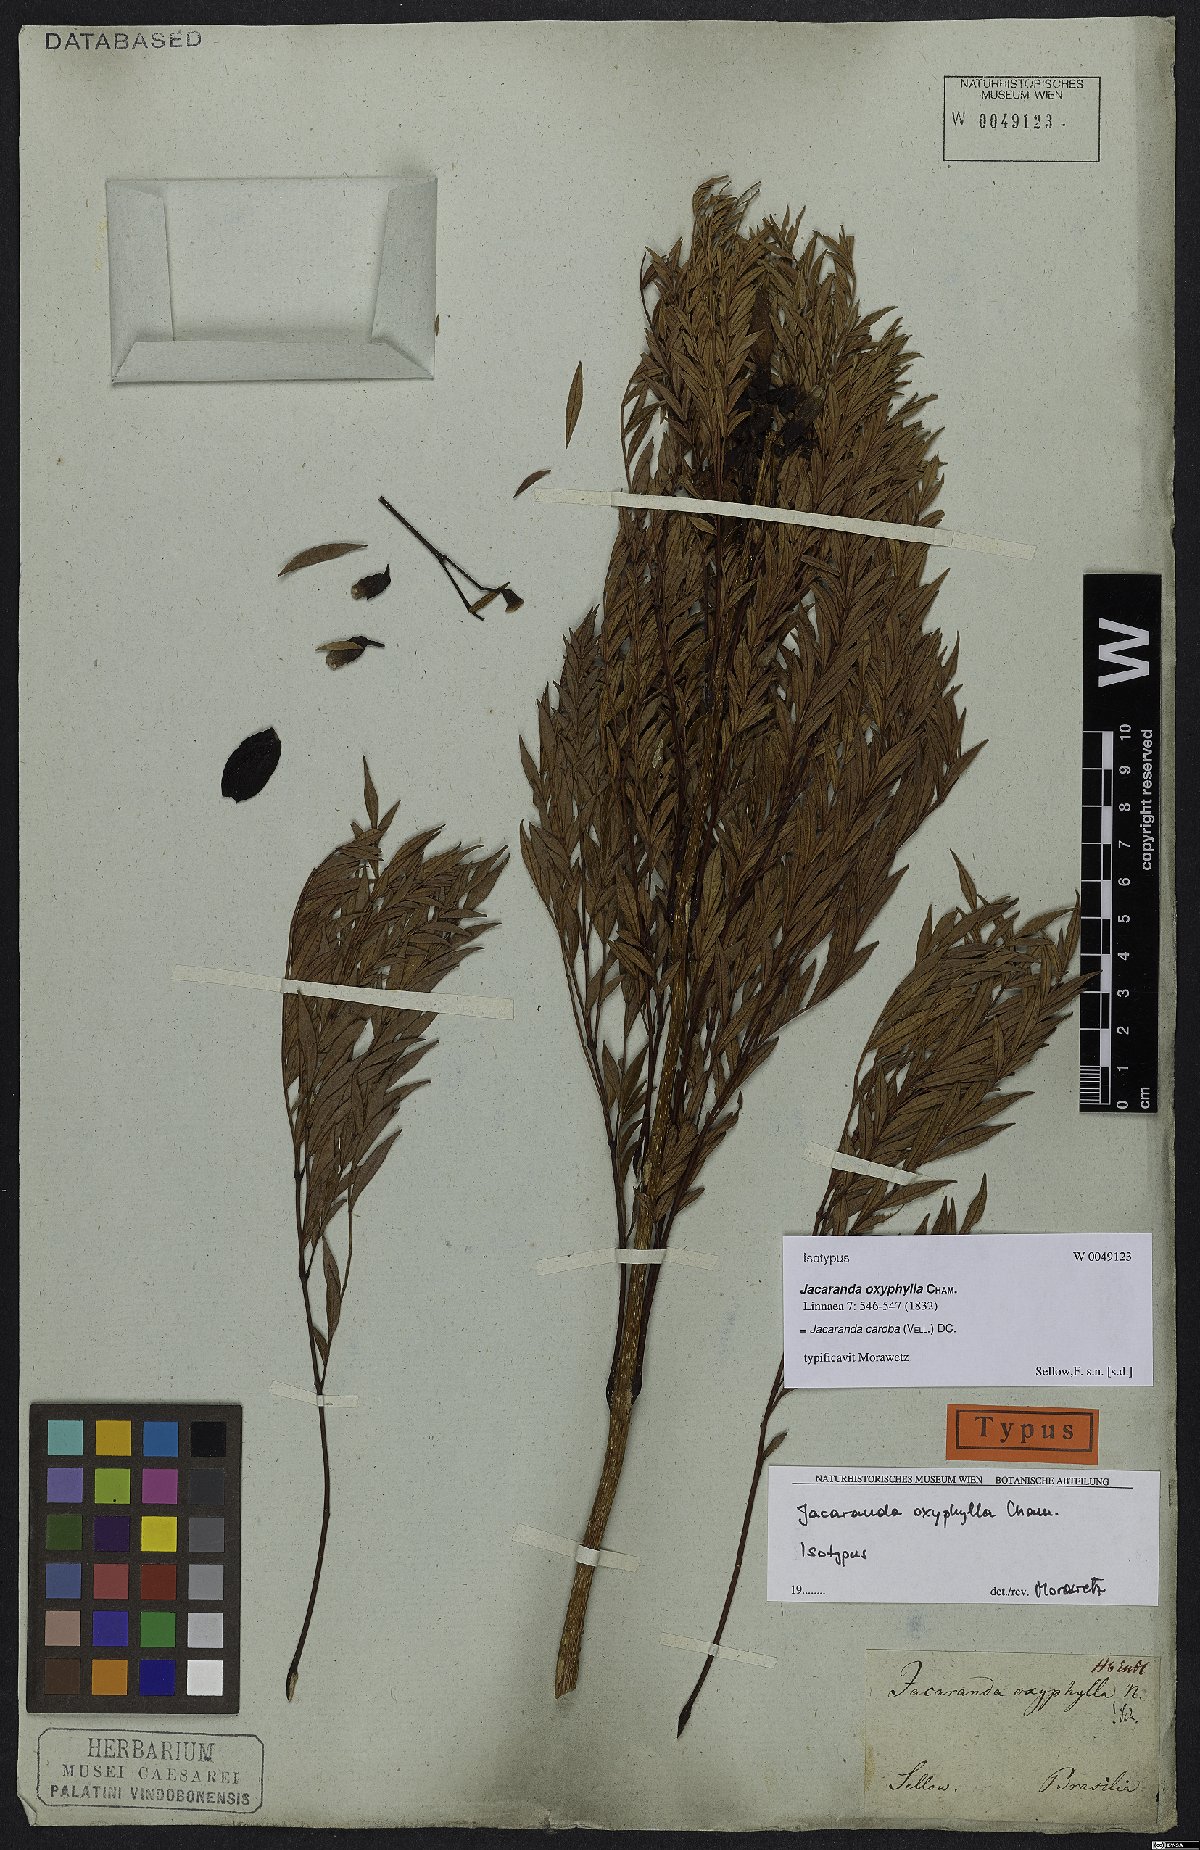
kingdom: Plantae
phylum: Tracheophyta
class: Magnoliopsida
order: Lamiales
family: Bignoniaceae
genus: Jacaranda
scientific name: Jacaranda caroba
